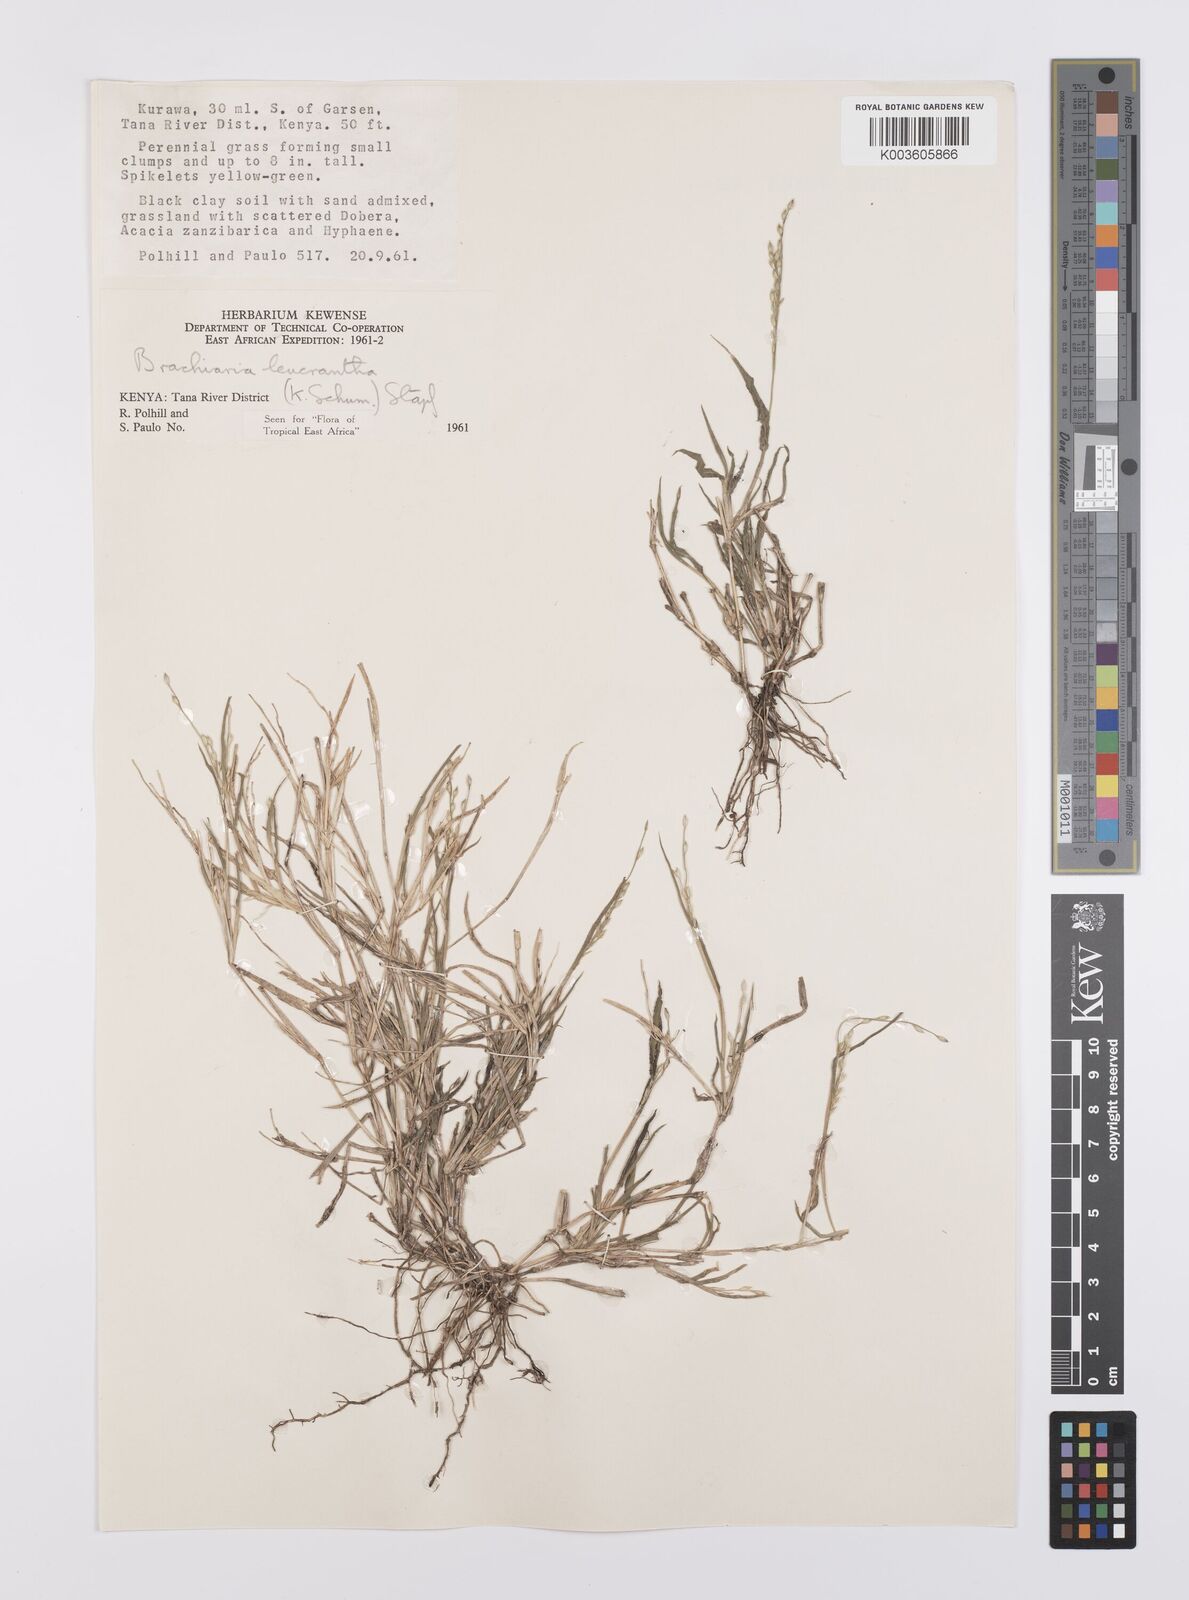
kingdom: Plantae
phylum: Tracheophyta
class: Liliopsida
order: Poales
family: Poaceae
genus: Urochloa
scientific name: Urochloa xantholeuca
